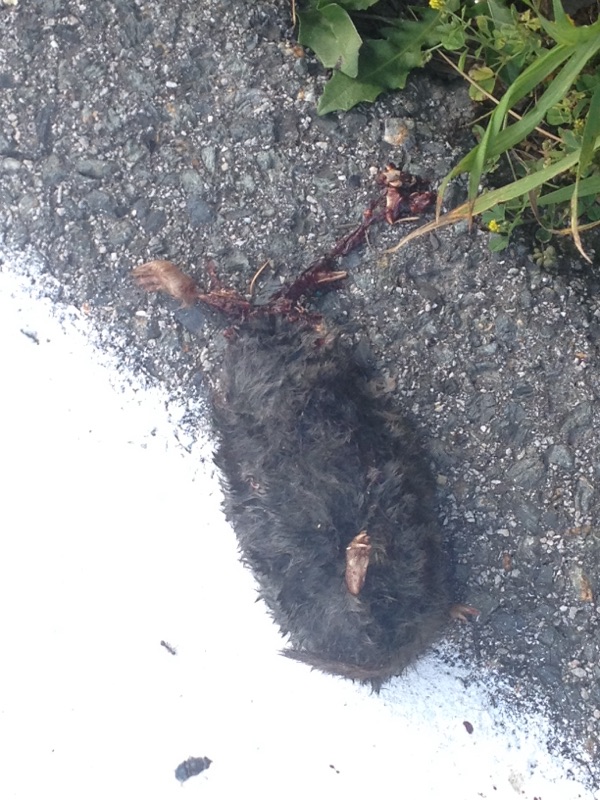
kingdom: Animalia
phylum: Chordata
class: Mammalia
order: Soricomorpha
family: Talpidae
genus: Talpa
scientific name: Talpa europaea
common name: European mole
